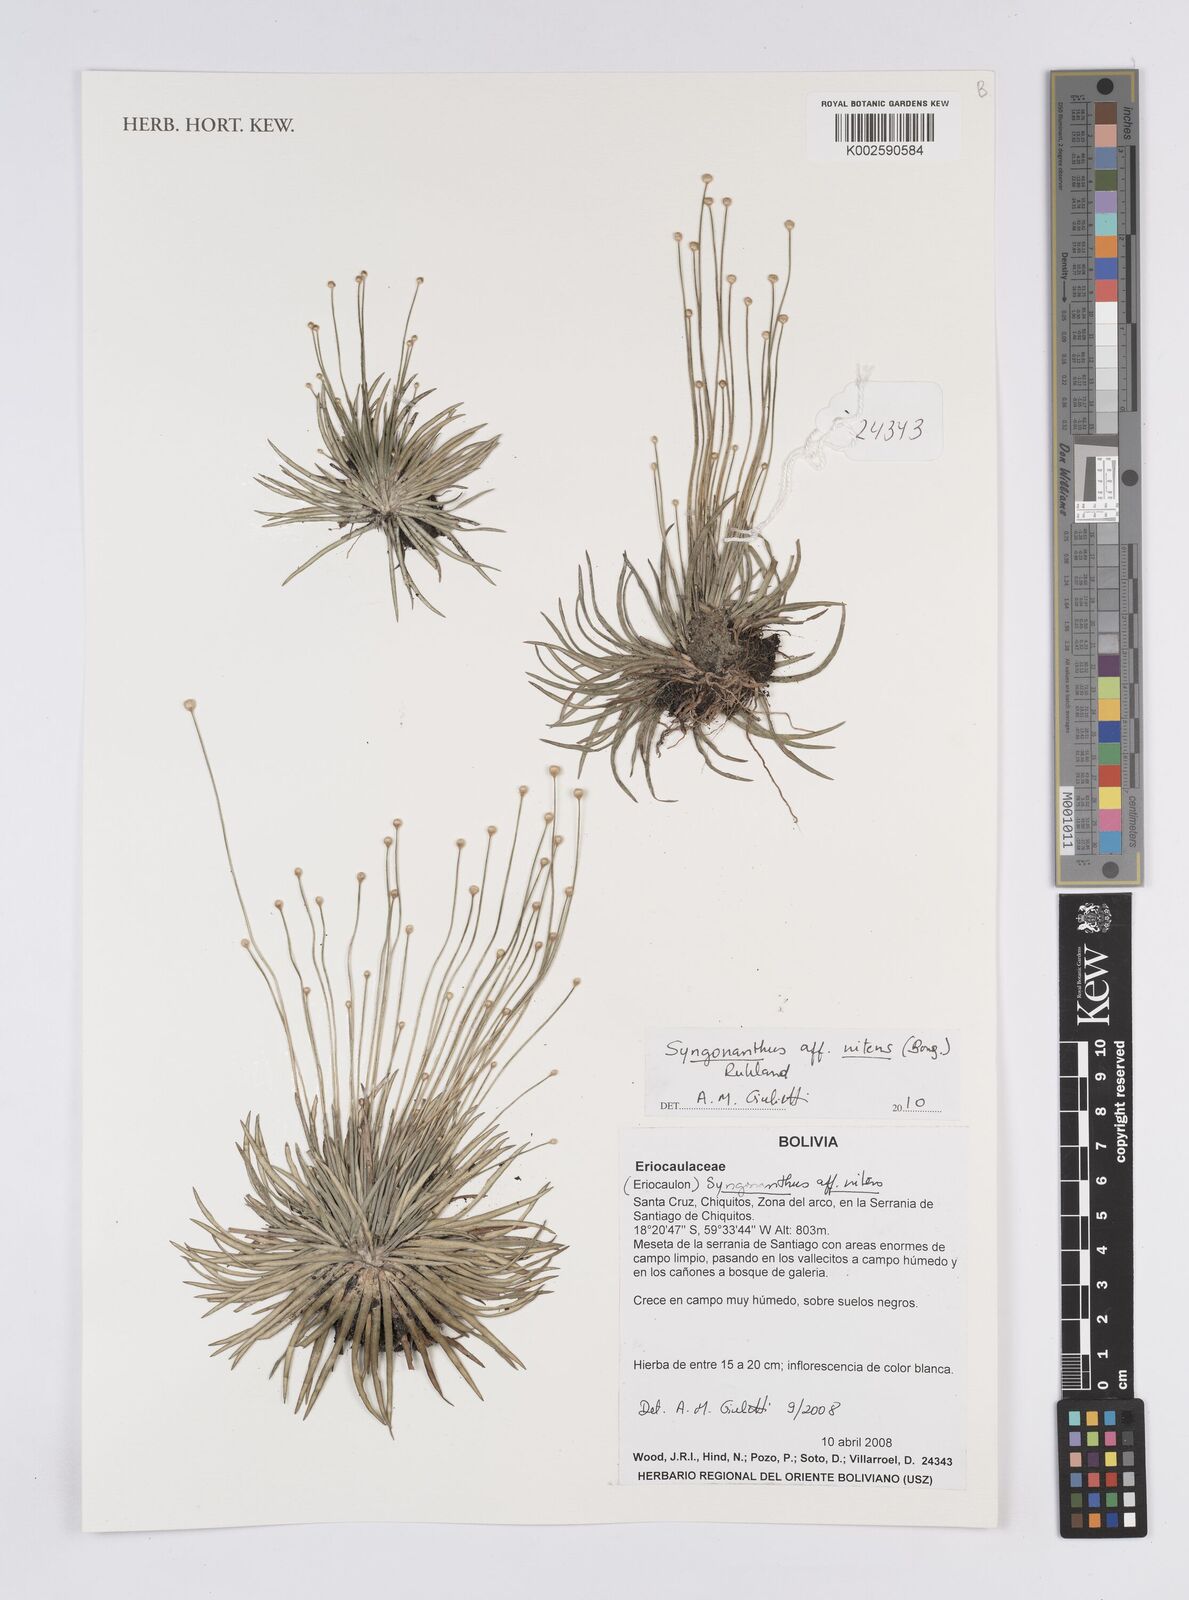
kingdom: Plantae
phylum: Tracheophyta
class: Liliopsida
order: Poales
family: Eriocaulaceae
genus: Syngonanthus
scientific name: Syngonanthus nitens
